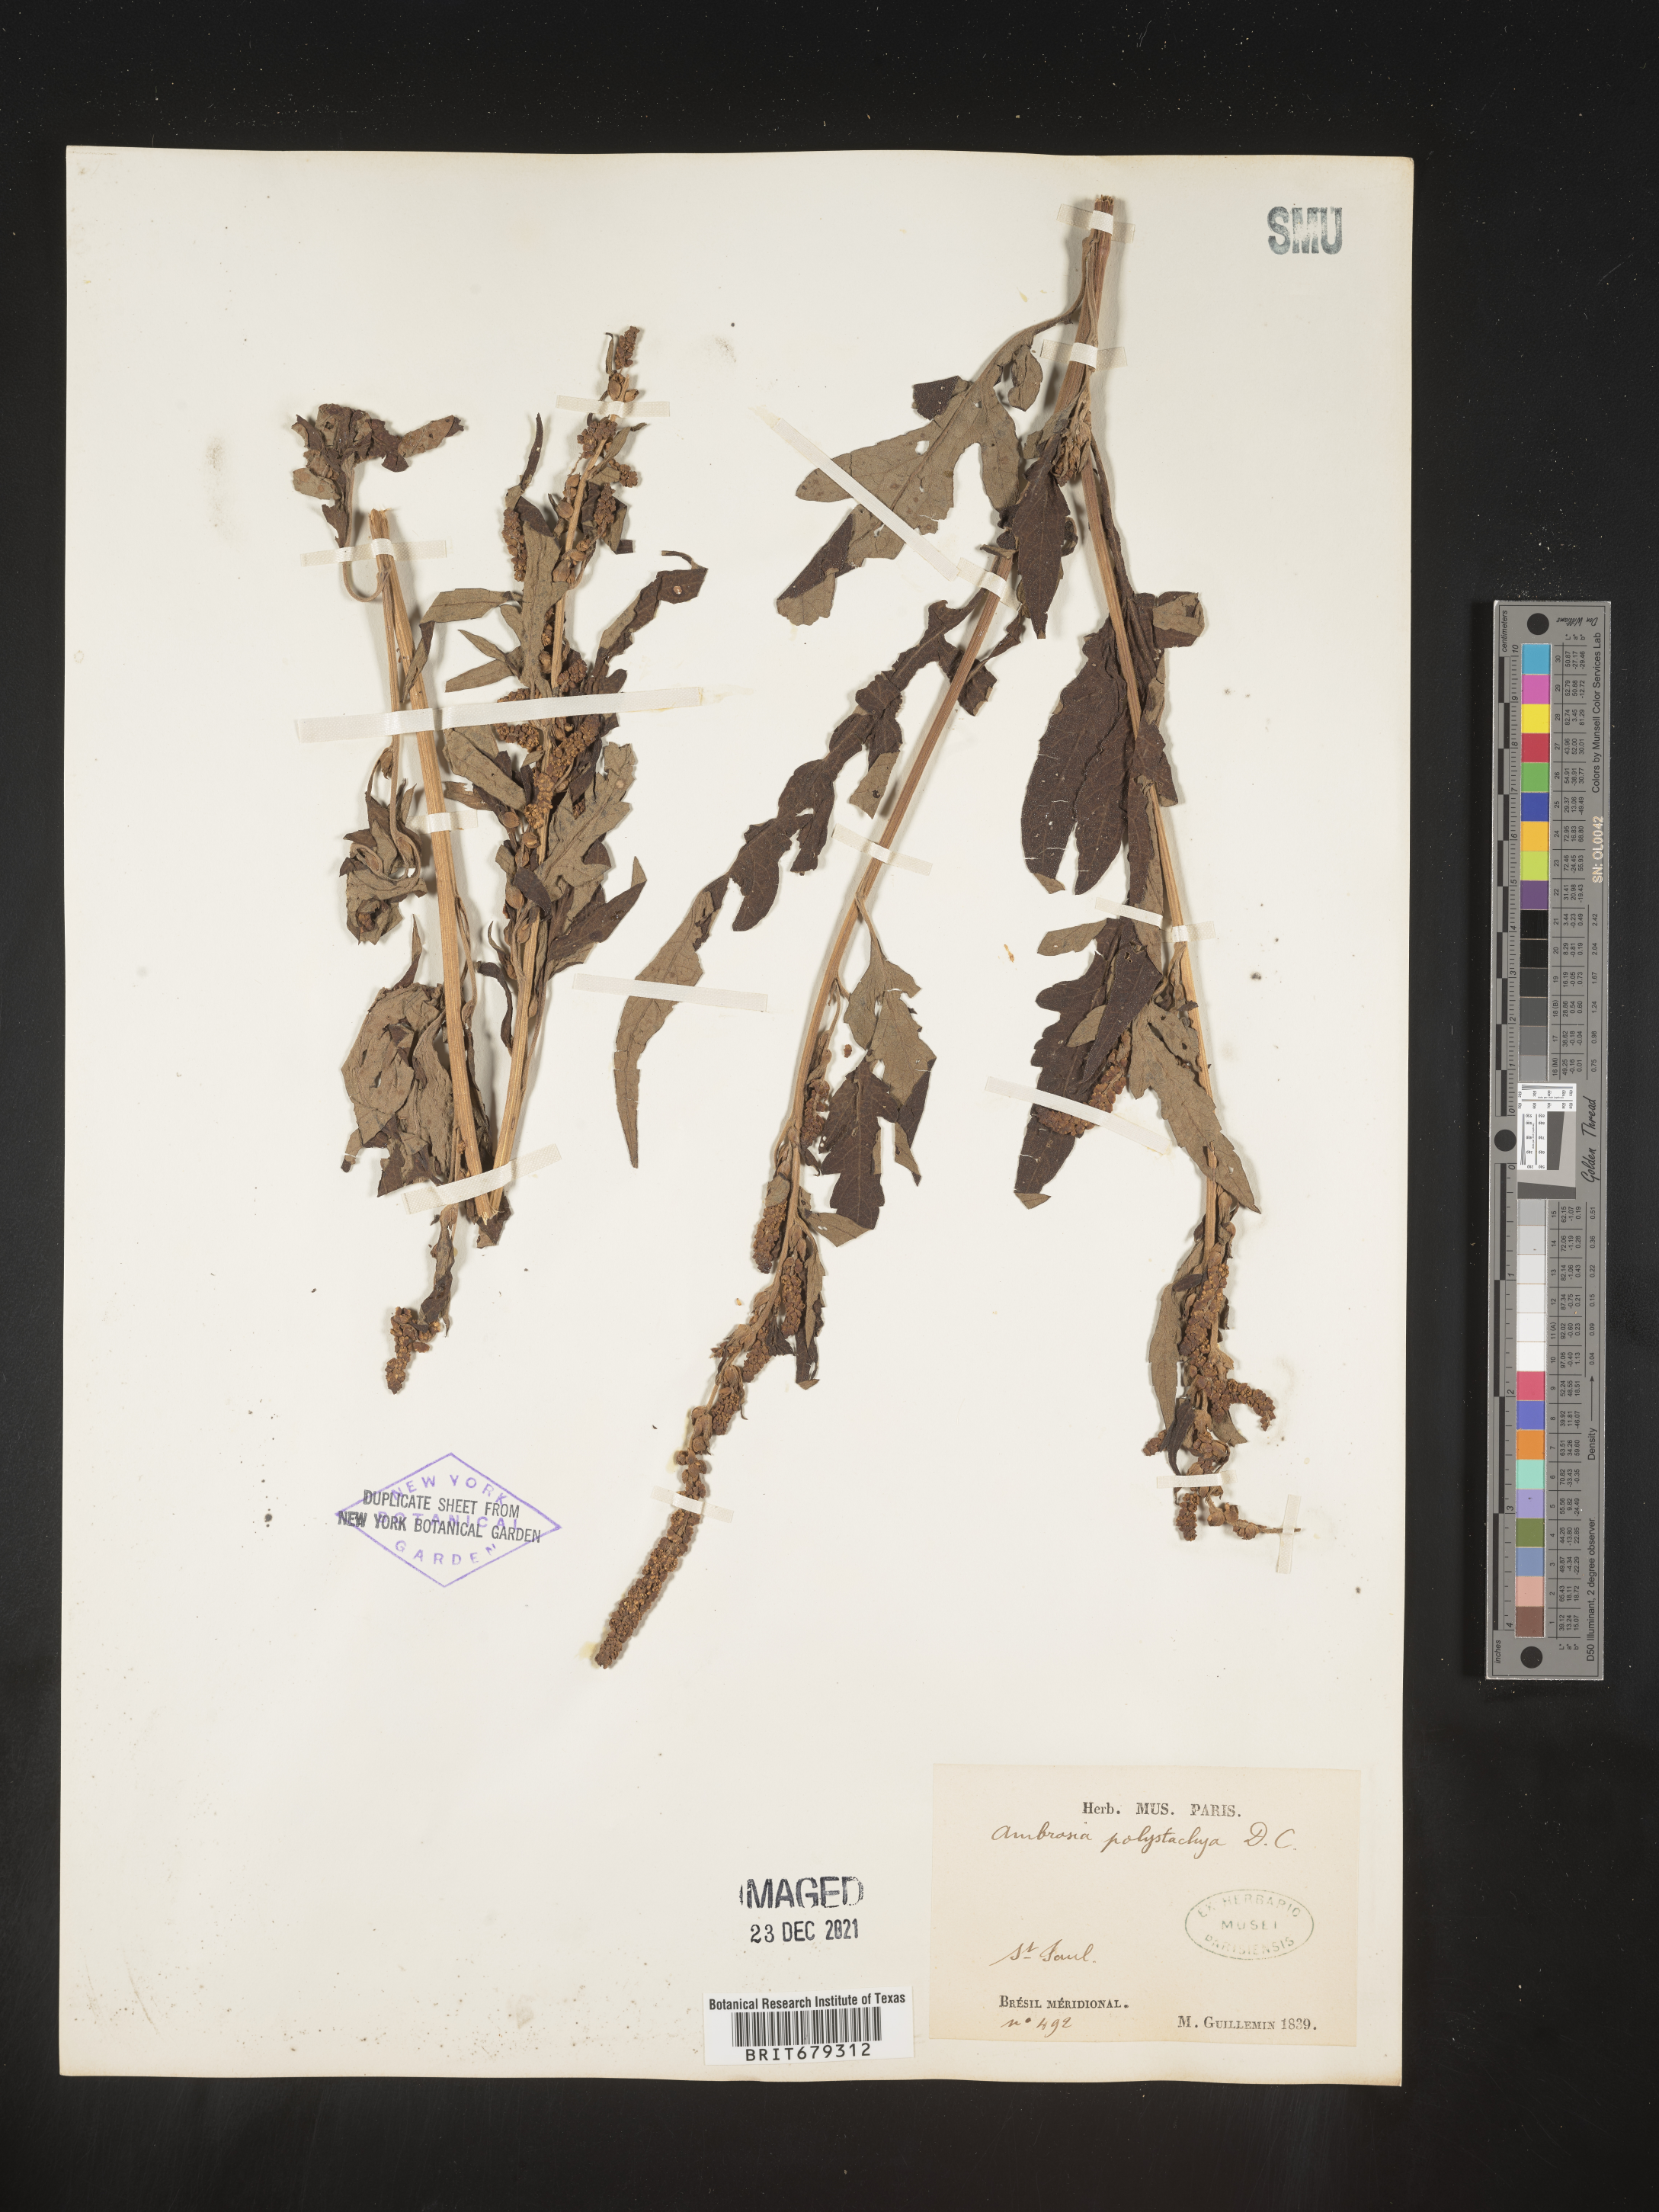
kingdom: Plantae
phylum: Tracheophyta
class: Magnoliopsida
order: Asterales
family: Asteraceae
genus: Ambrosia
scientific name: Ambrosia
